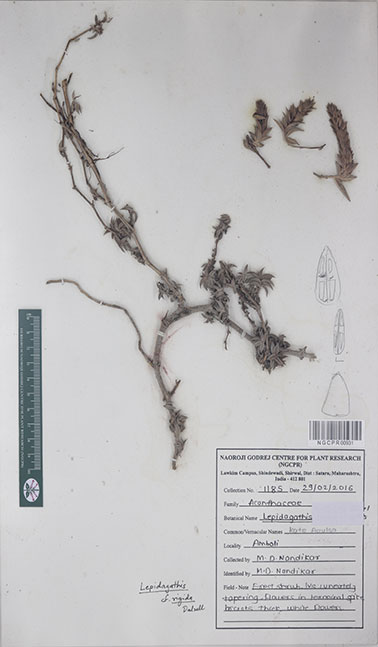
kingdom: Plantae
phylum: Tracheophyta
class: Magnoliopsida
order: Lamiales
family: Acanthaceae
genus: Lepidagathis
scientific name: Lepidagathis rigida
